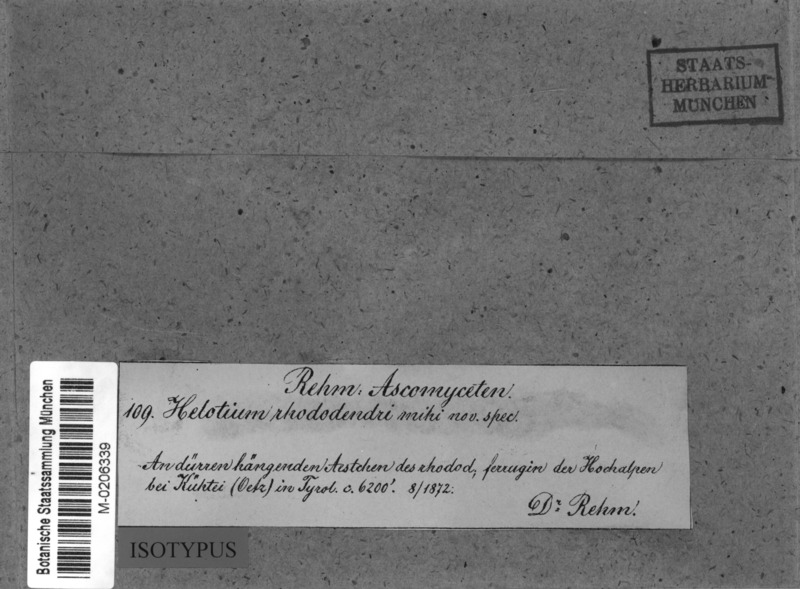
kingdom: Fungi
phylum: Ascomycota
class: Leotiomycetes
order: Helotiales
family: Dermateaceae
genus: Cenangella
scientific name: Cenangella
